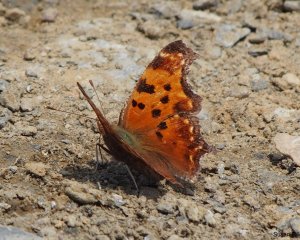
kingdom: Animalia
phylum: Arthropoda
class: Insecta
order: Lepidoptera
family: Nymphalidae
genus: Polygonia
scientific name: Polygonia comma
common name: Eastern Comma
